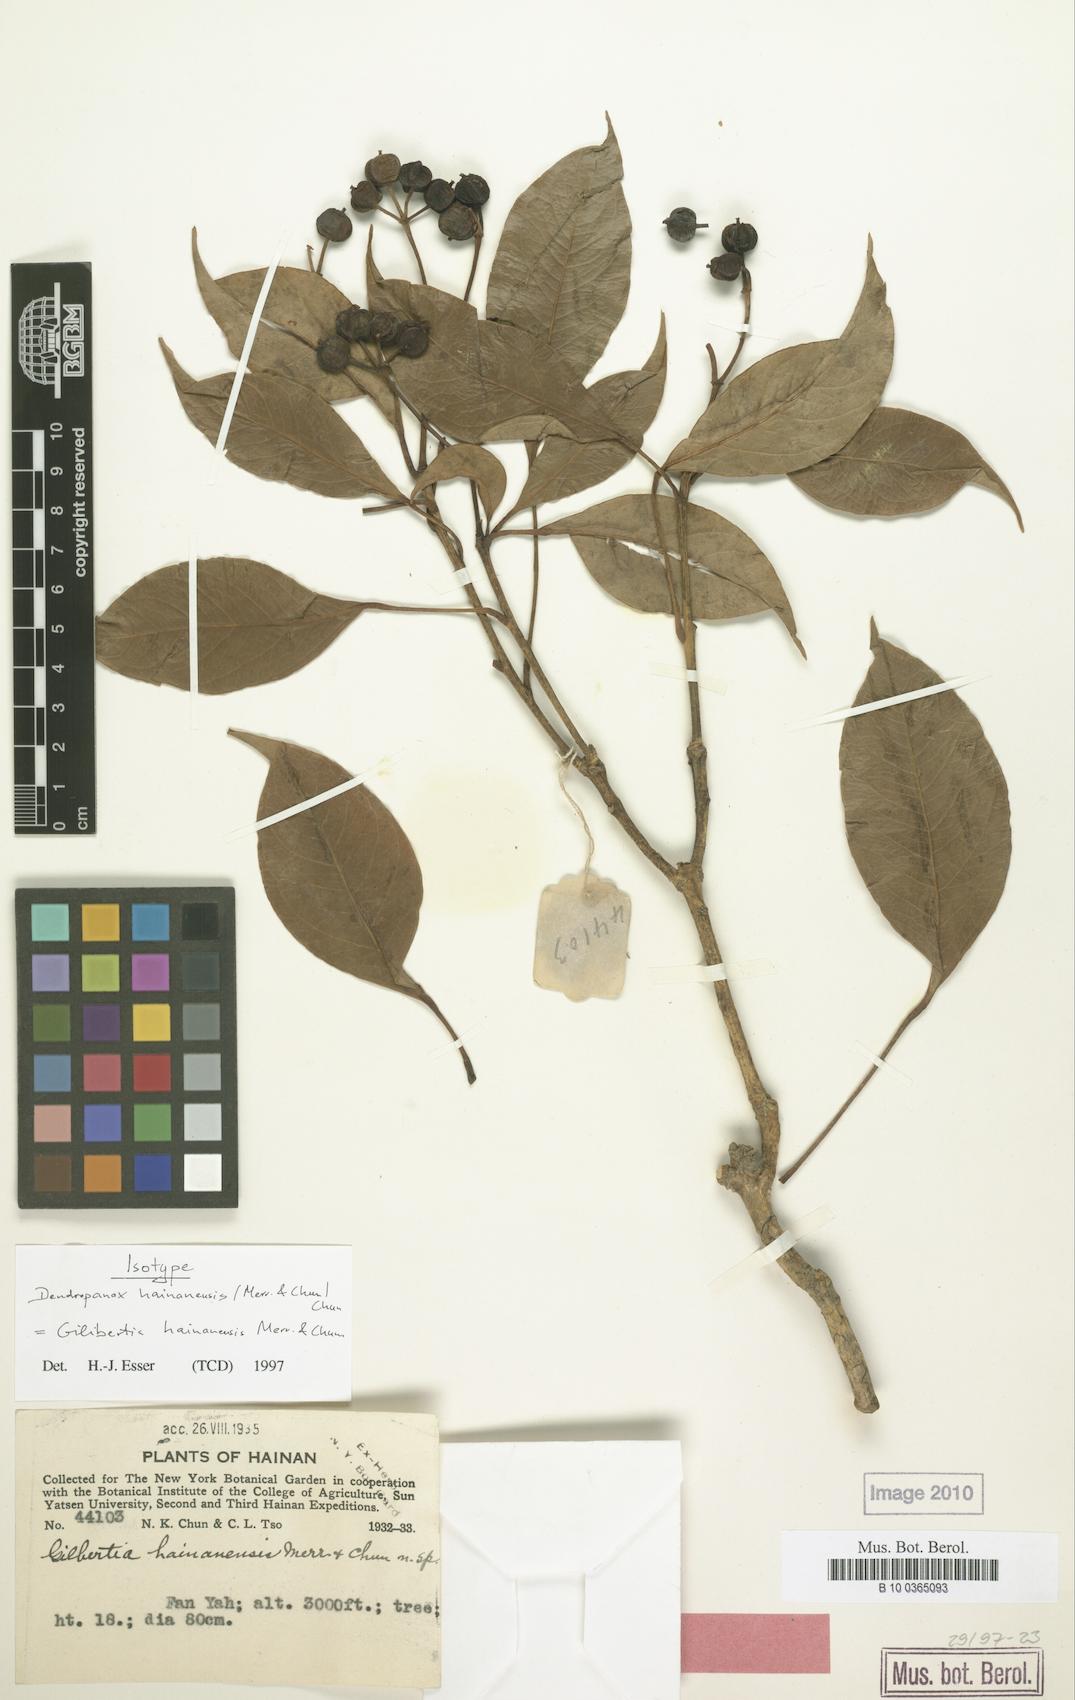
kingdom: Plantae
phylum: Tracheophyta
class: Magnoliopsida
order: Apiales
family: Araliaceae
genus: Dendropanax
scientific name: Dendropanax hainanensis
